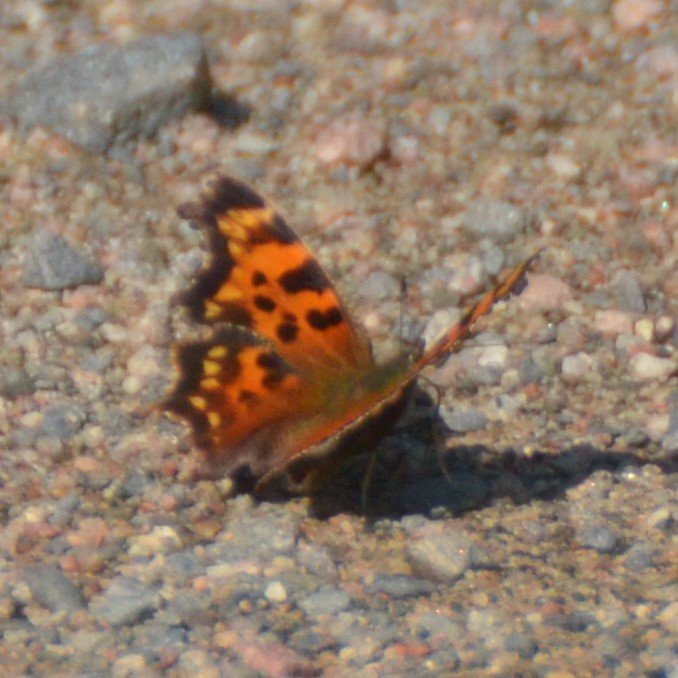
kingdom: Animalia
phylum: Arthropoda
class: Insecta
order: Lepidoptera
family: Nymphalidae
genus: Polygonia
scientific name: Polygonia
